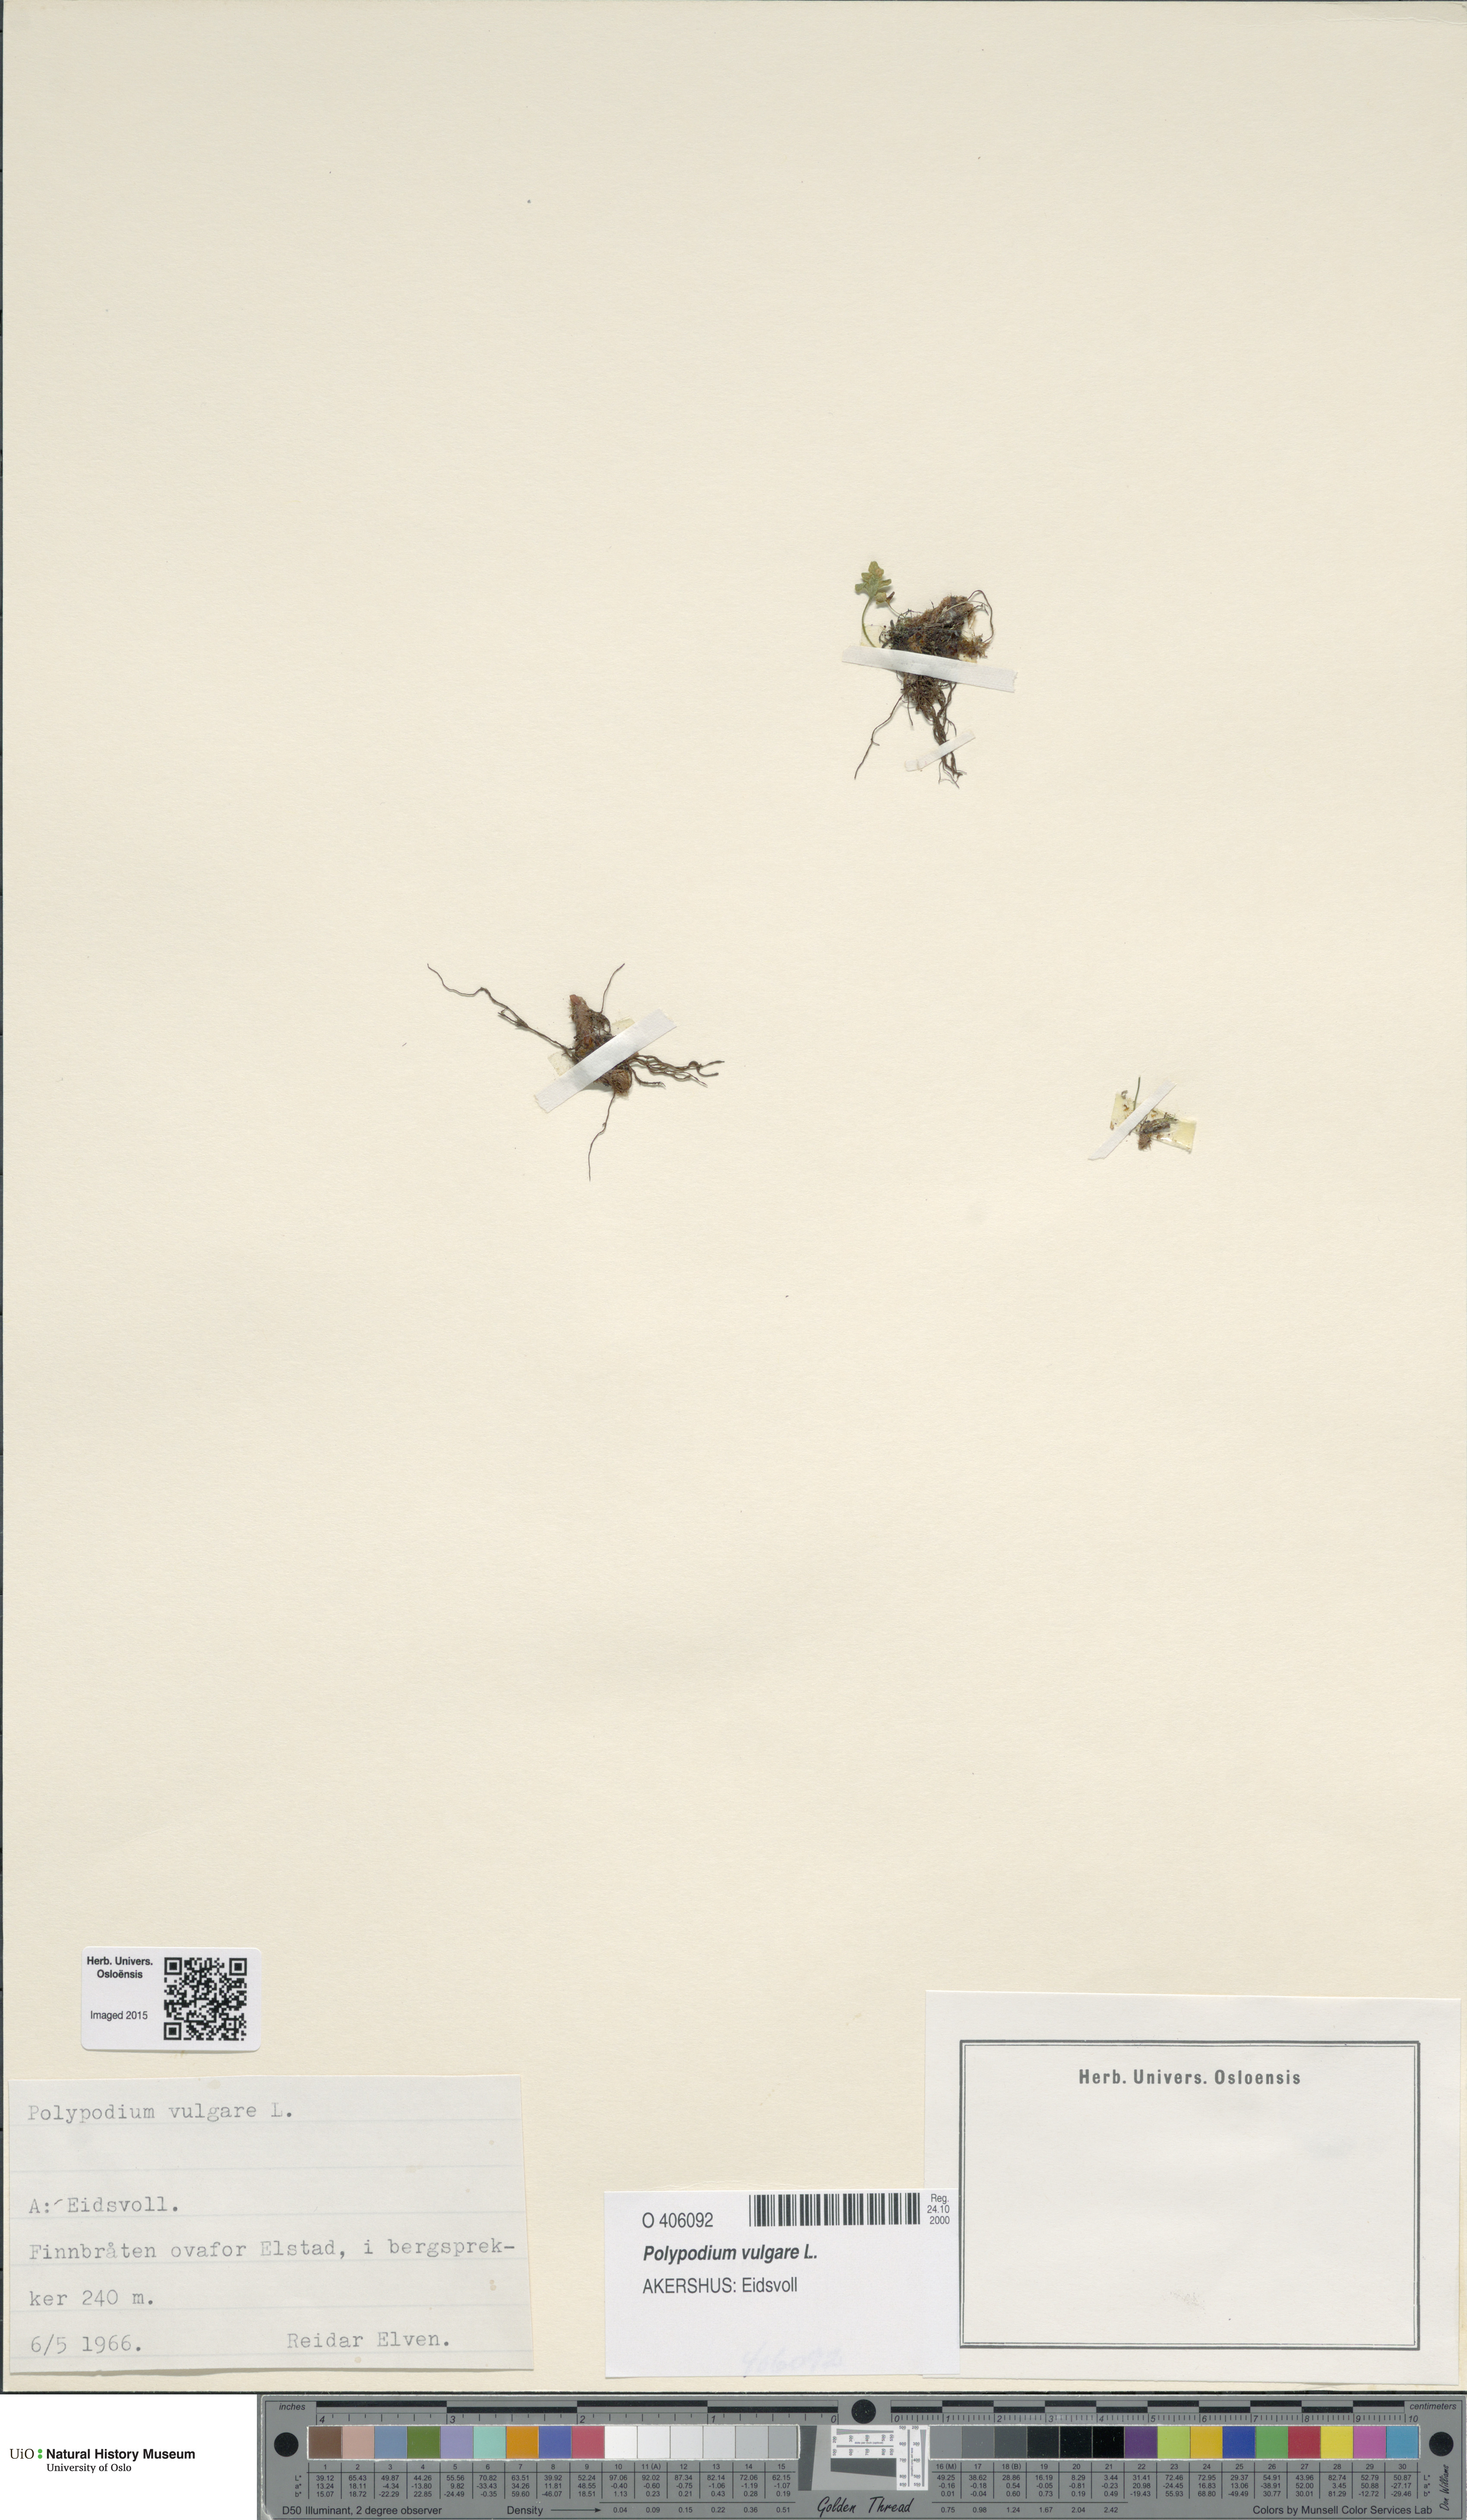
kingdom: Plantae
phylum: Tracheophyta
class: Polypodiopsida
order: Polypodiales
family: Polypodiaceae
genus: Polypodium
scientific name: Polypodium vulgare
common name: Common polypody
